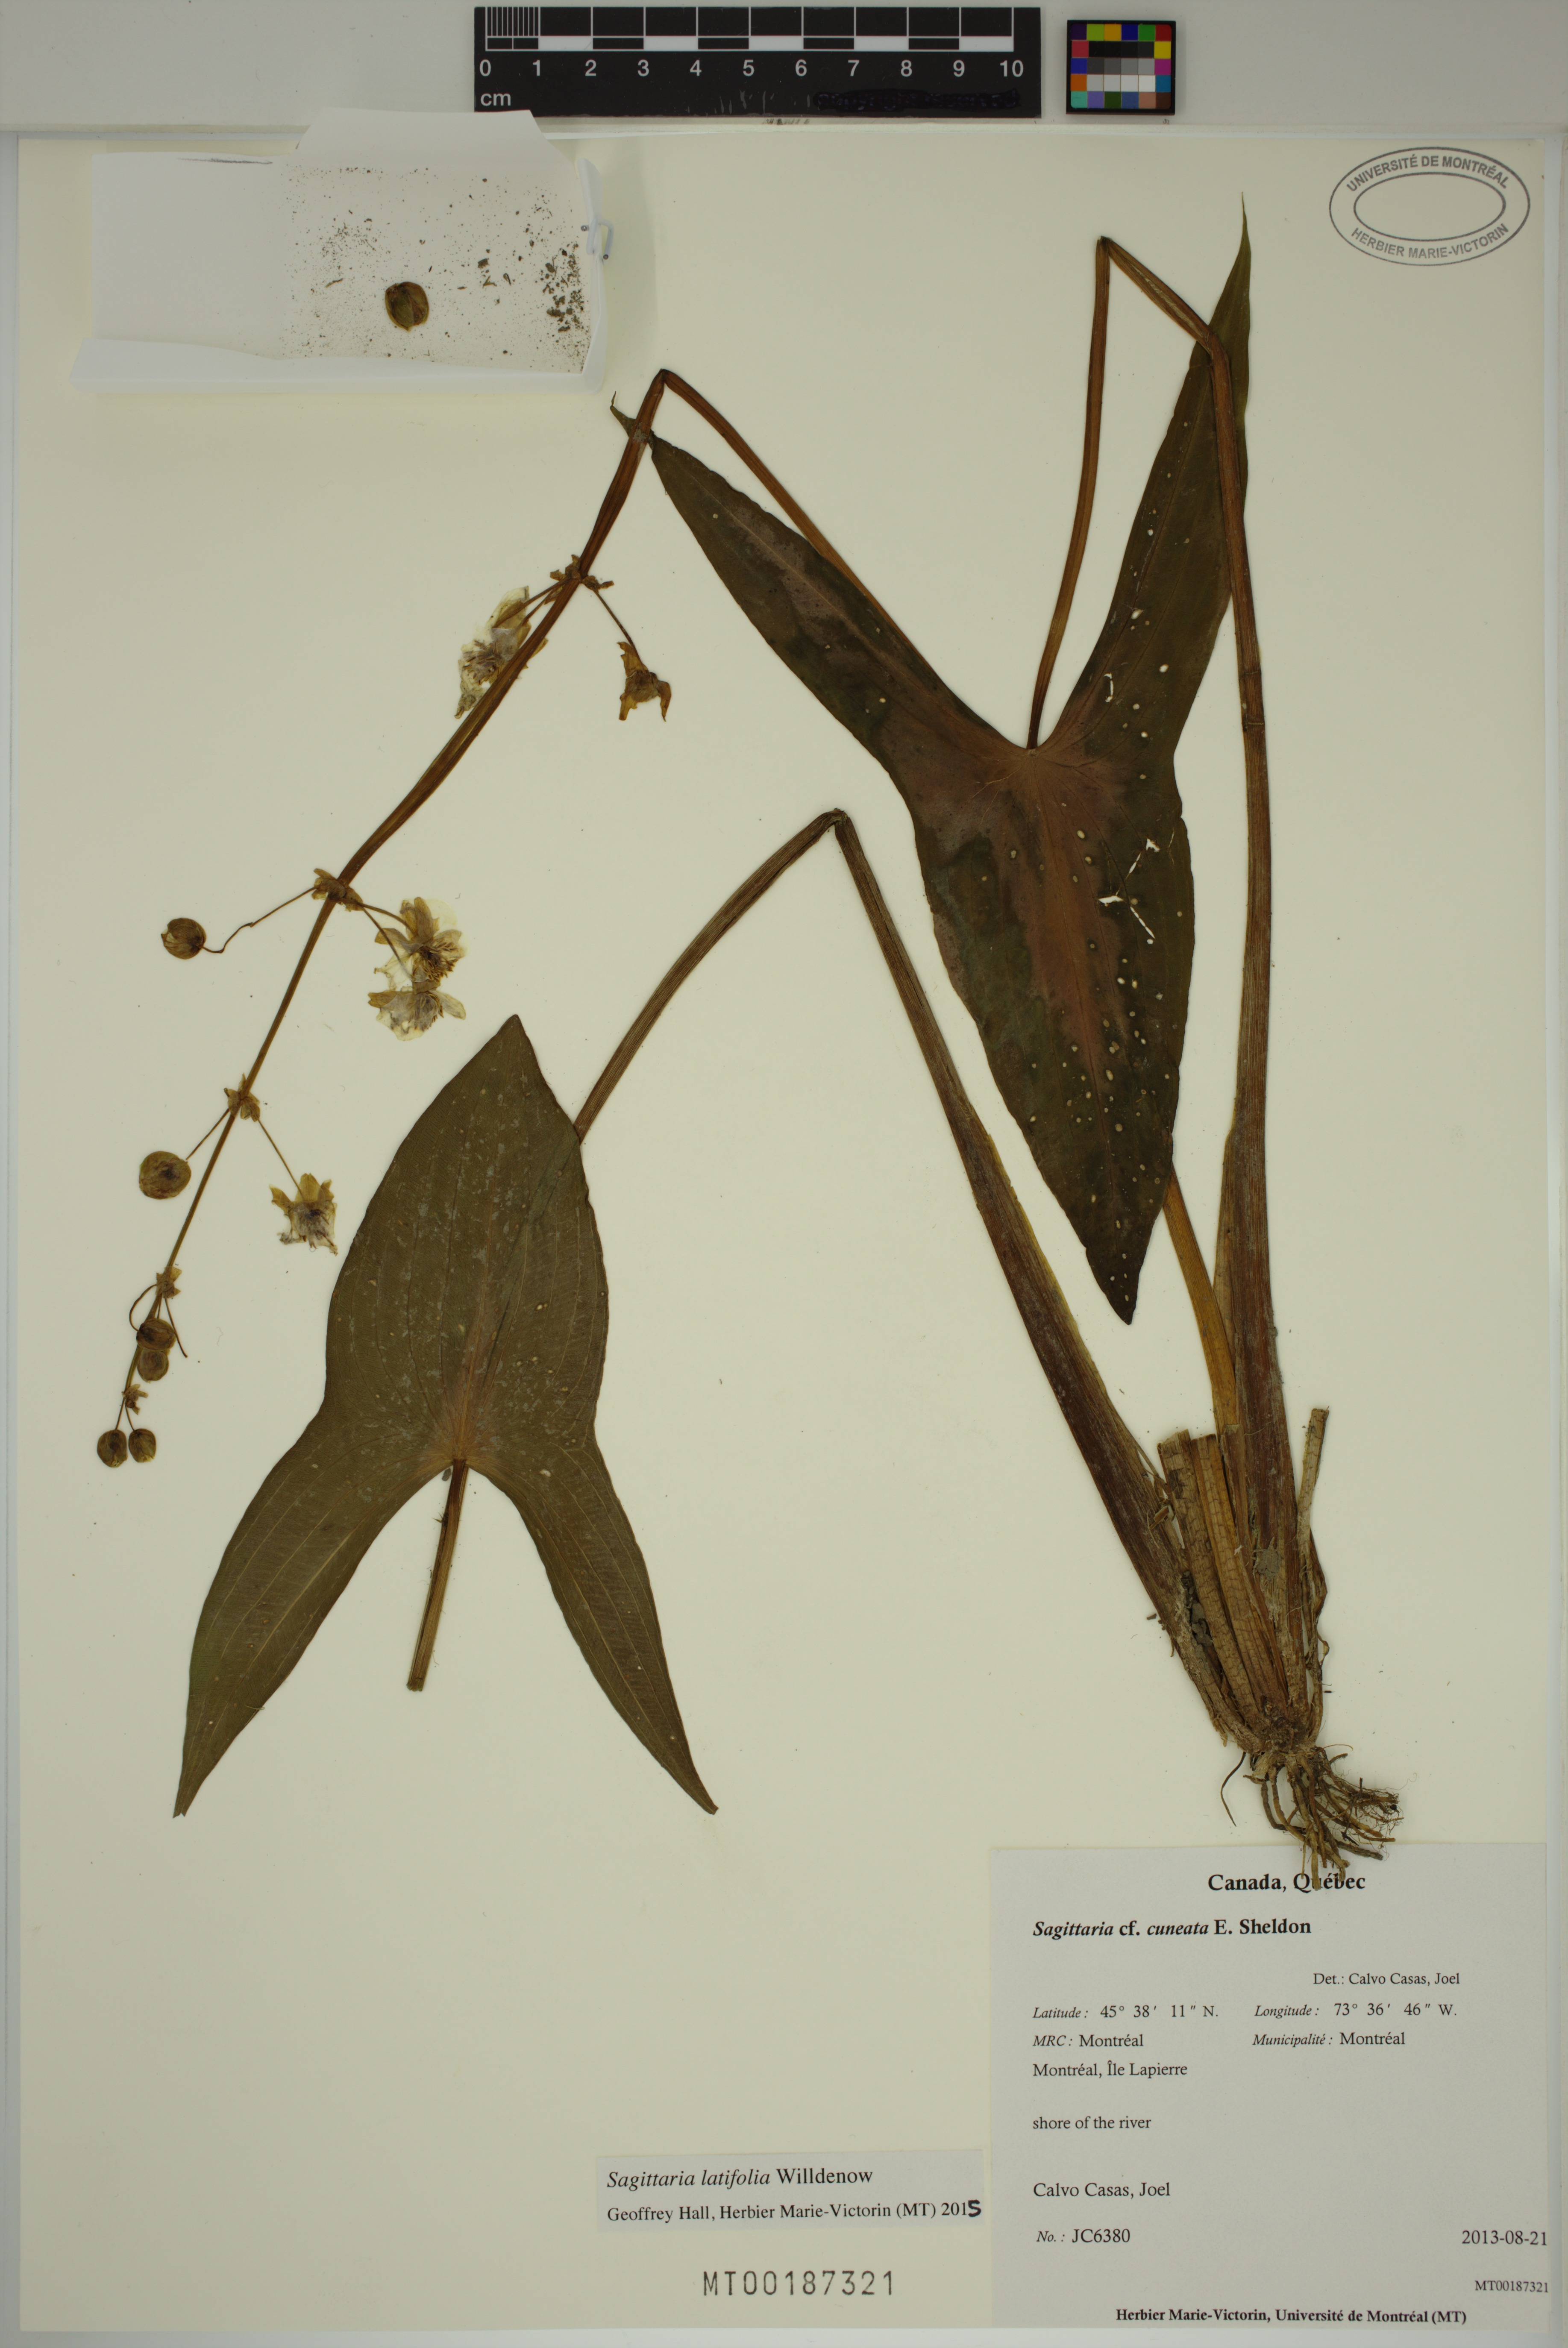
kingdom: Plantae
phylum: Tracheophyta
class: Liliopsida
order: Alismatales
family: Alismataceae
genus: Sagittaria
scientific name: Sagittaria latifolia
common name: Duck-potato
